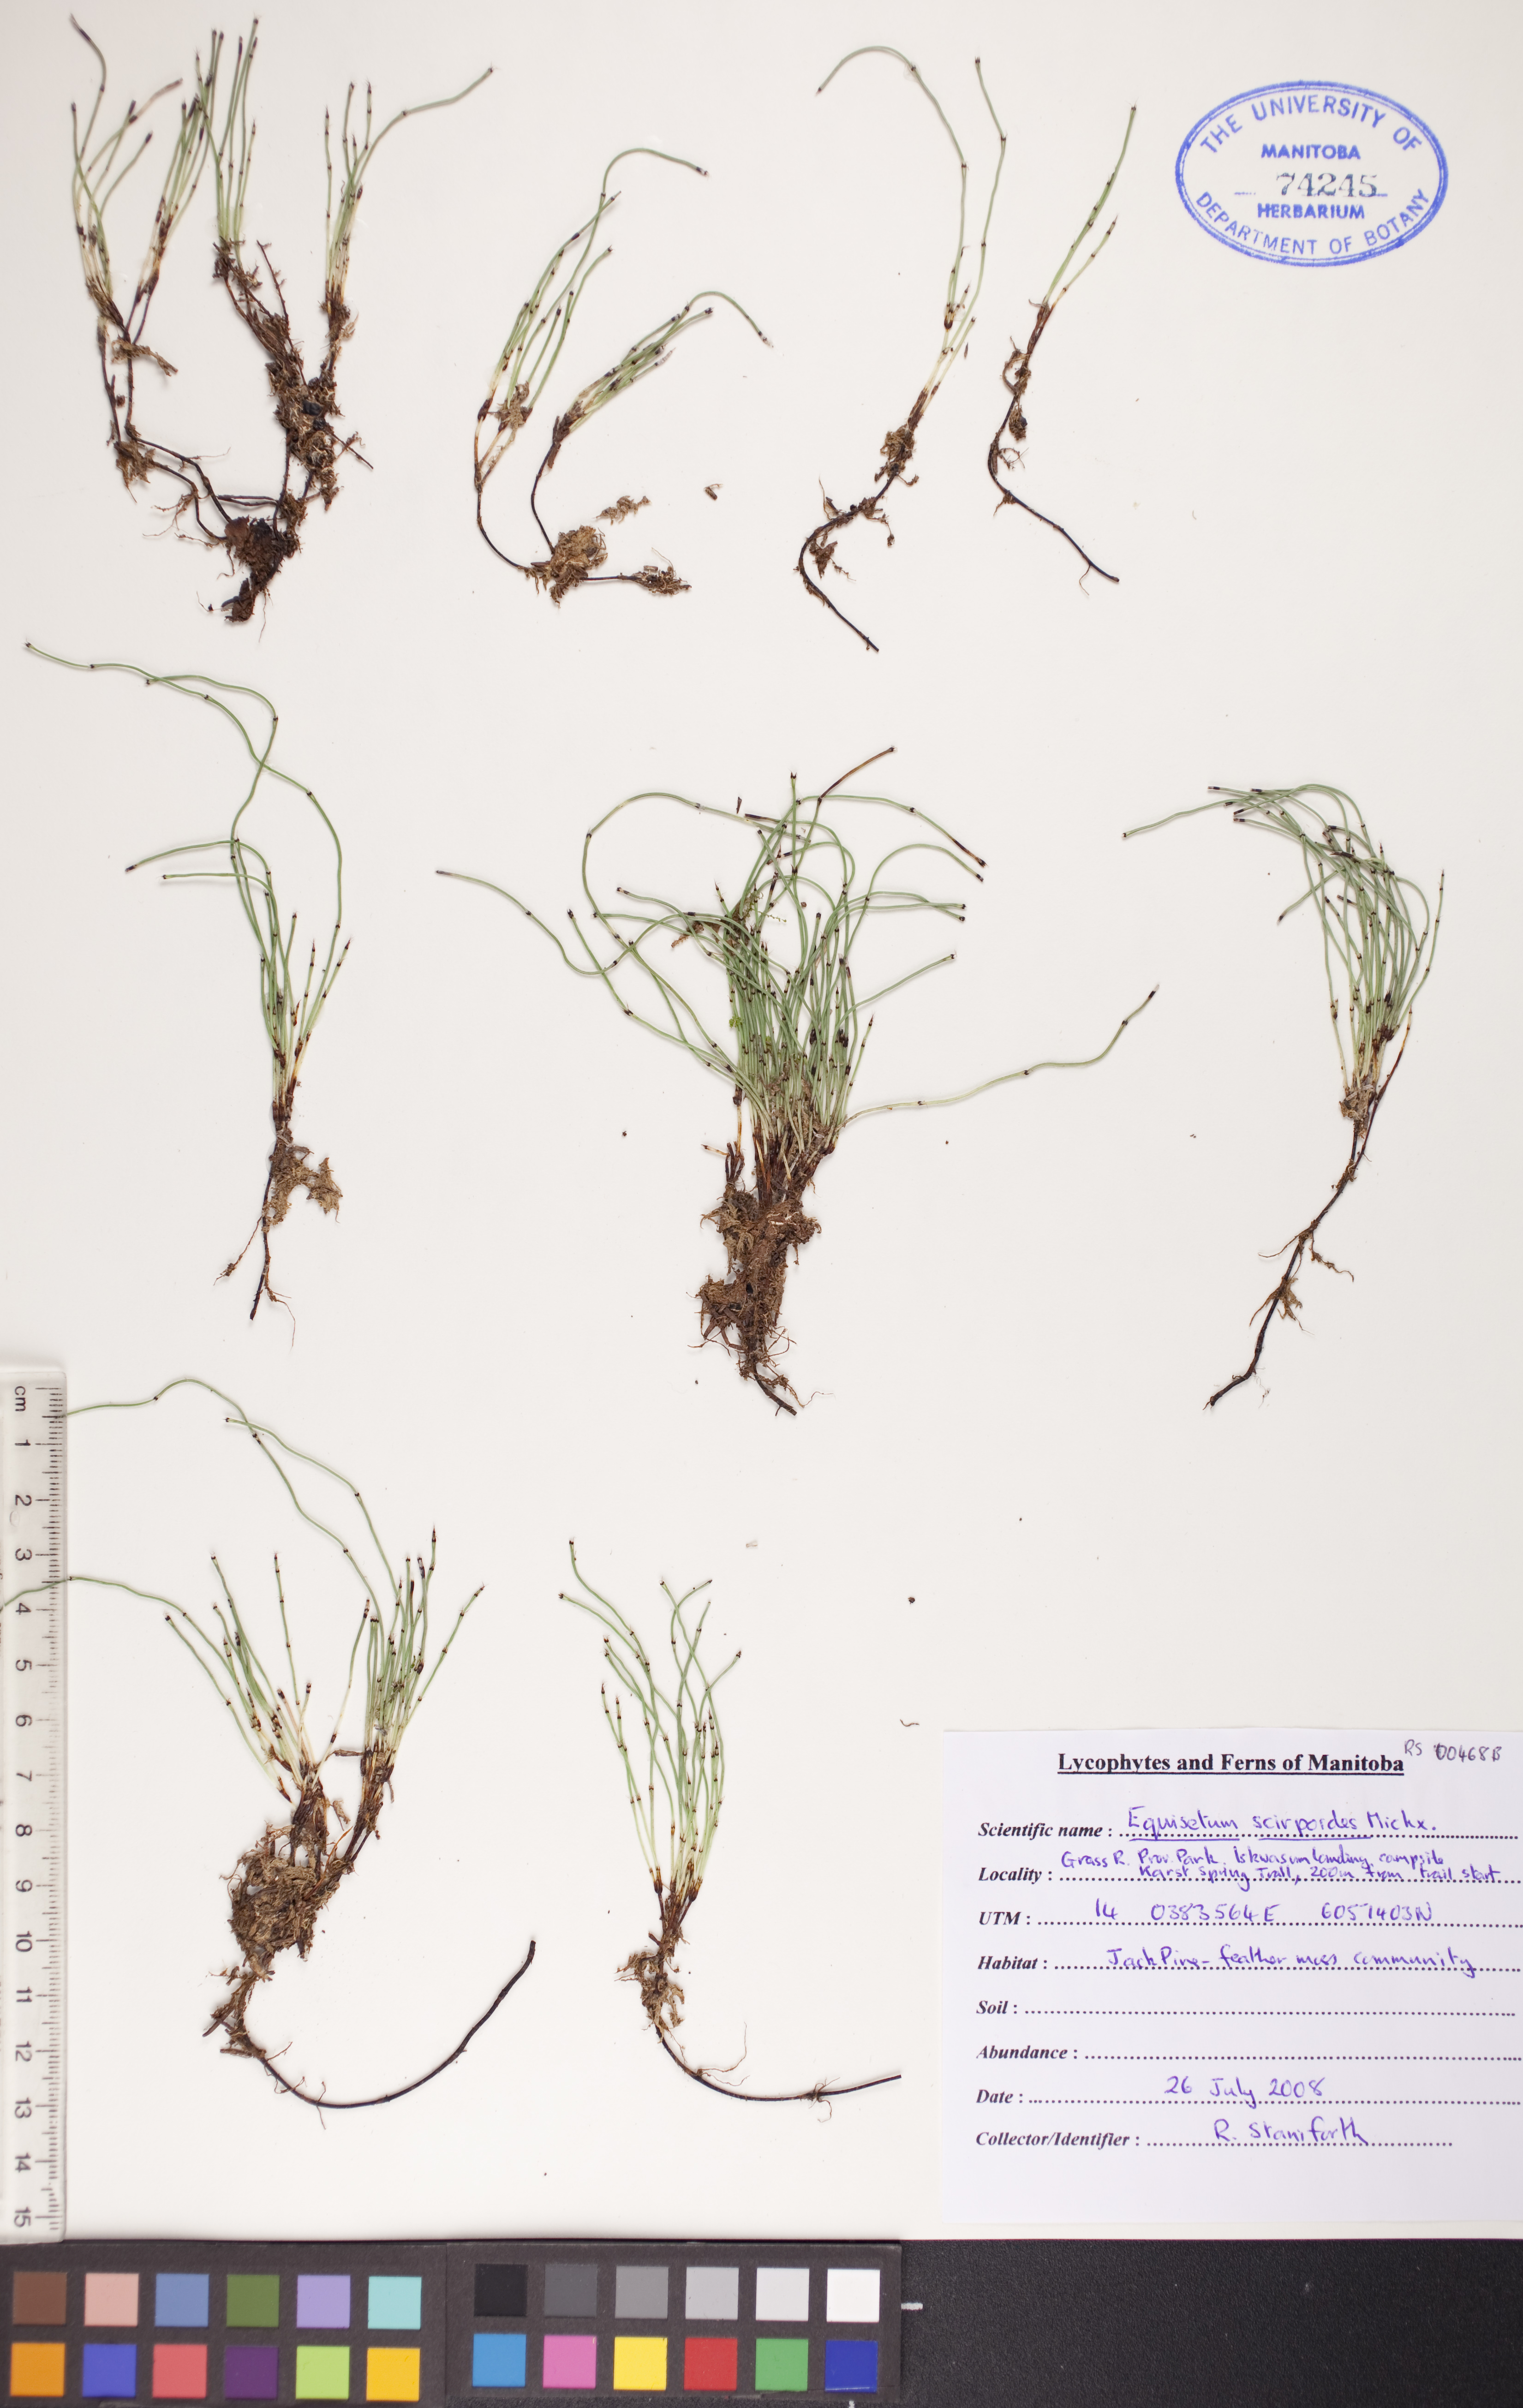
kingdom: Plantae
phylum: Tracheophyta
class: Polypodiopsida
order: Equisetales
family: Equisetaceae
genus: Equisetum
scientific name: Equisetum scirpoides
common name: Delicate horsetail
